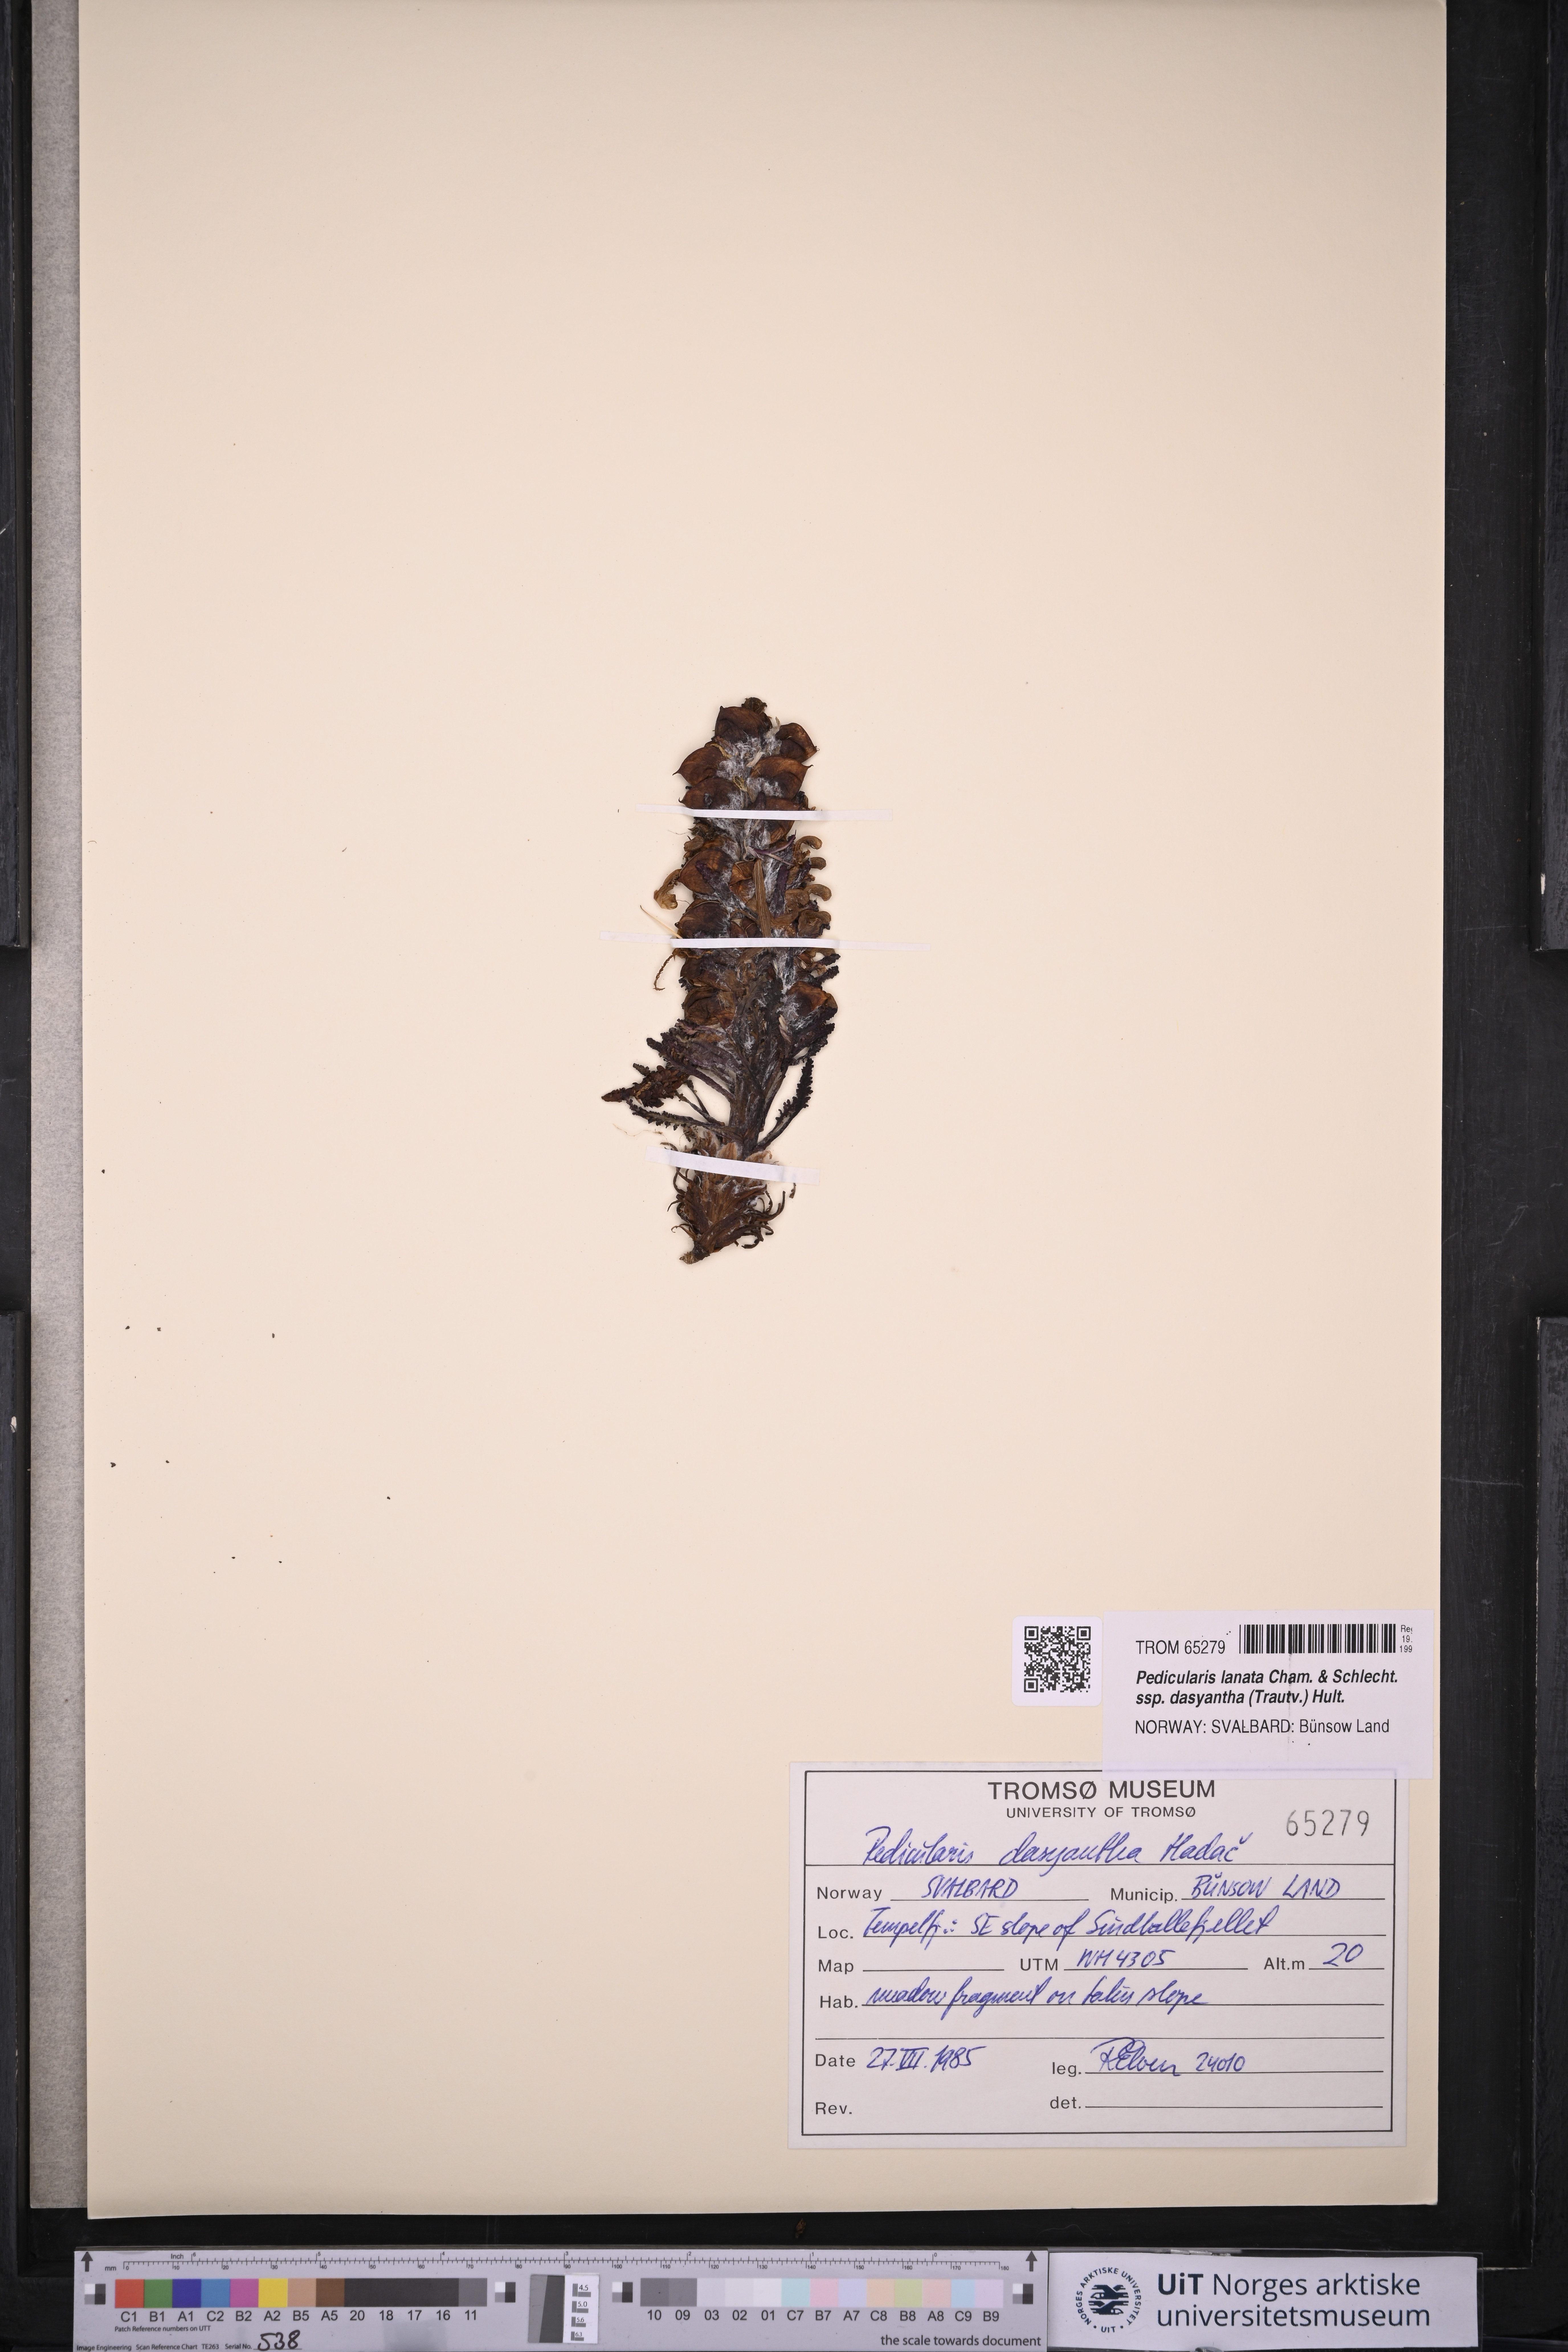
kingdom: Plantae
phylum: Tracheophyta
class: Magnoliopsida
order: Lamiales
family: Orobanchaceae
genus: Pedicularis
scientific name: Pedicularis dasyantha
